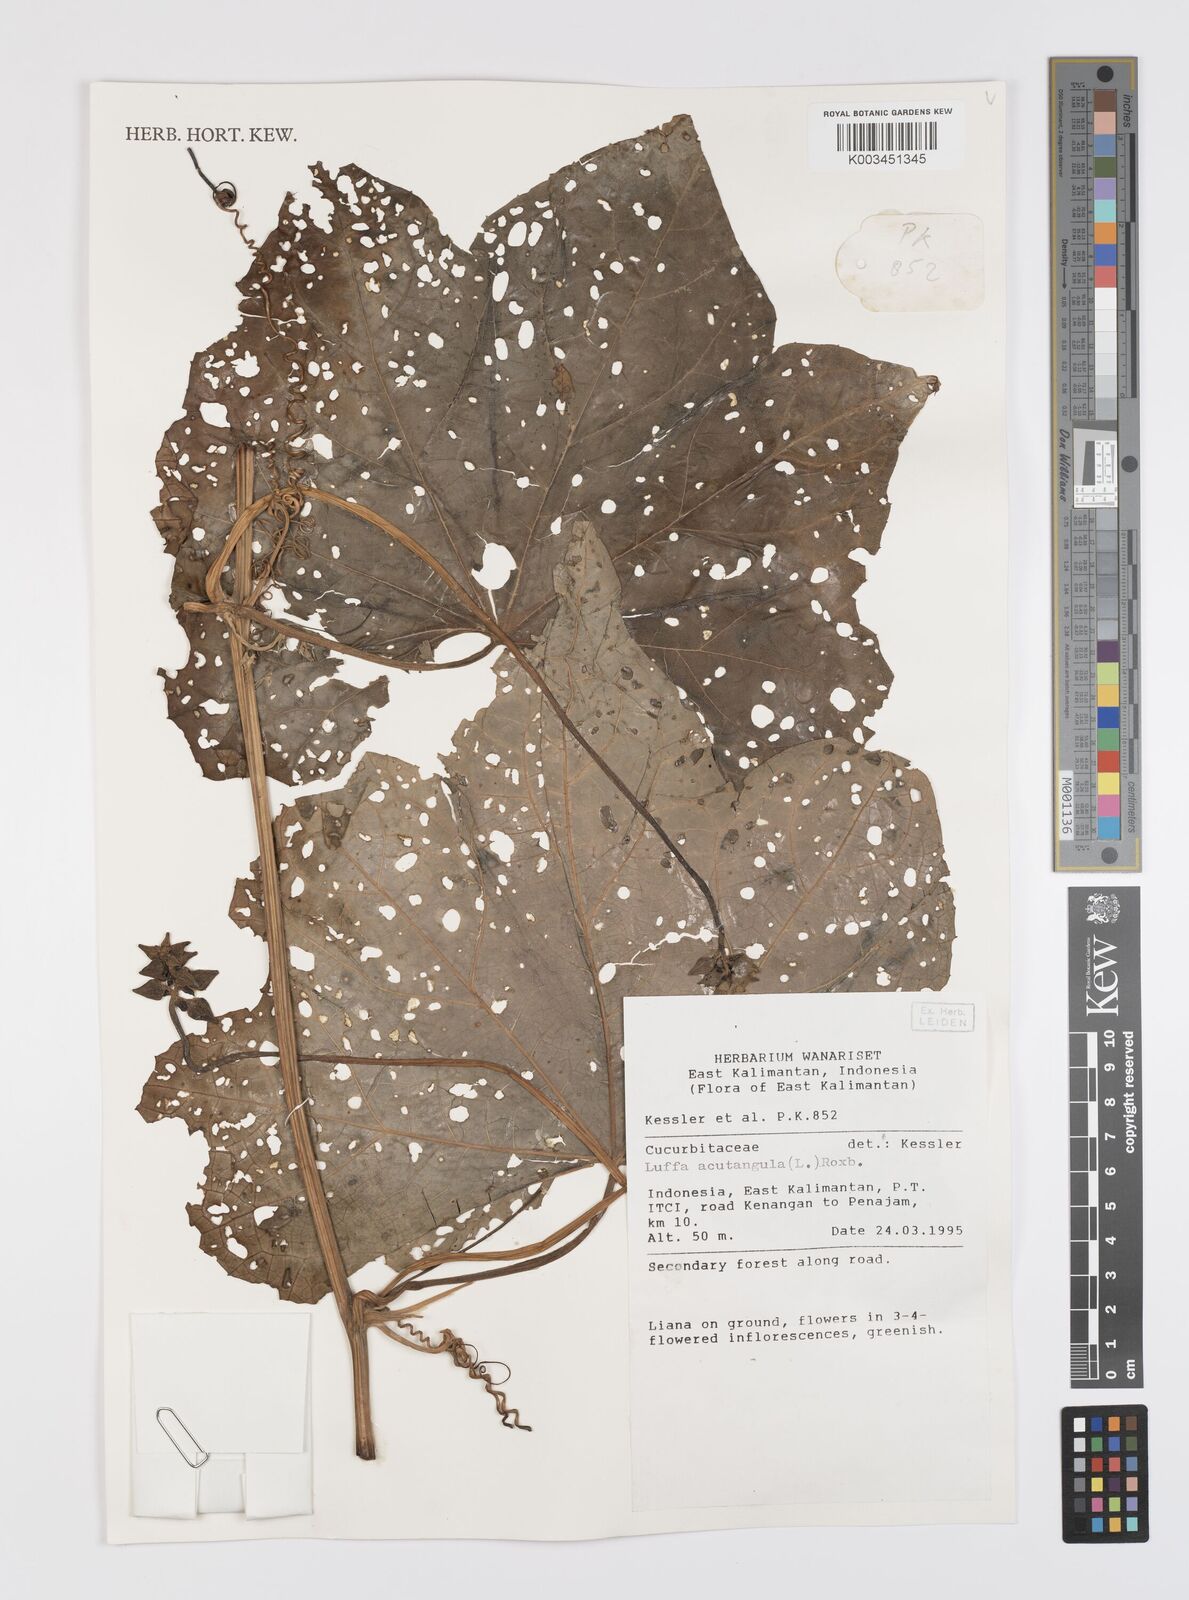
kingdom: Plantae
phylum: Tracheophyta
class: Magnoliopsida
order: Cucurbitales
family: Cucurbitaceae
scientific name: Cucurbitaceae
